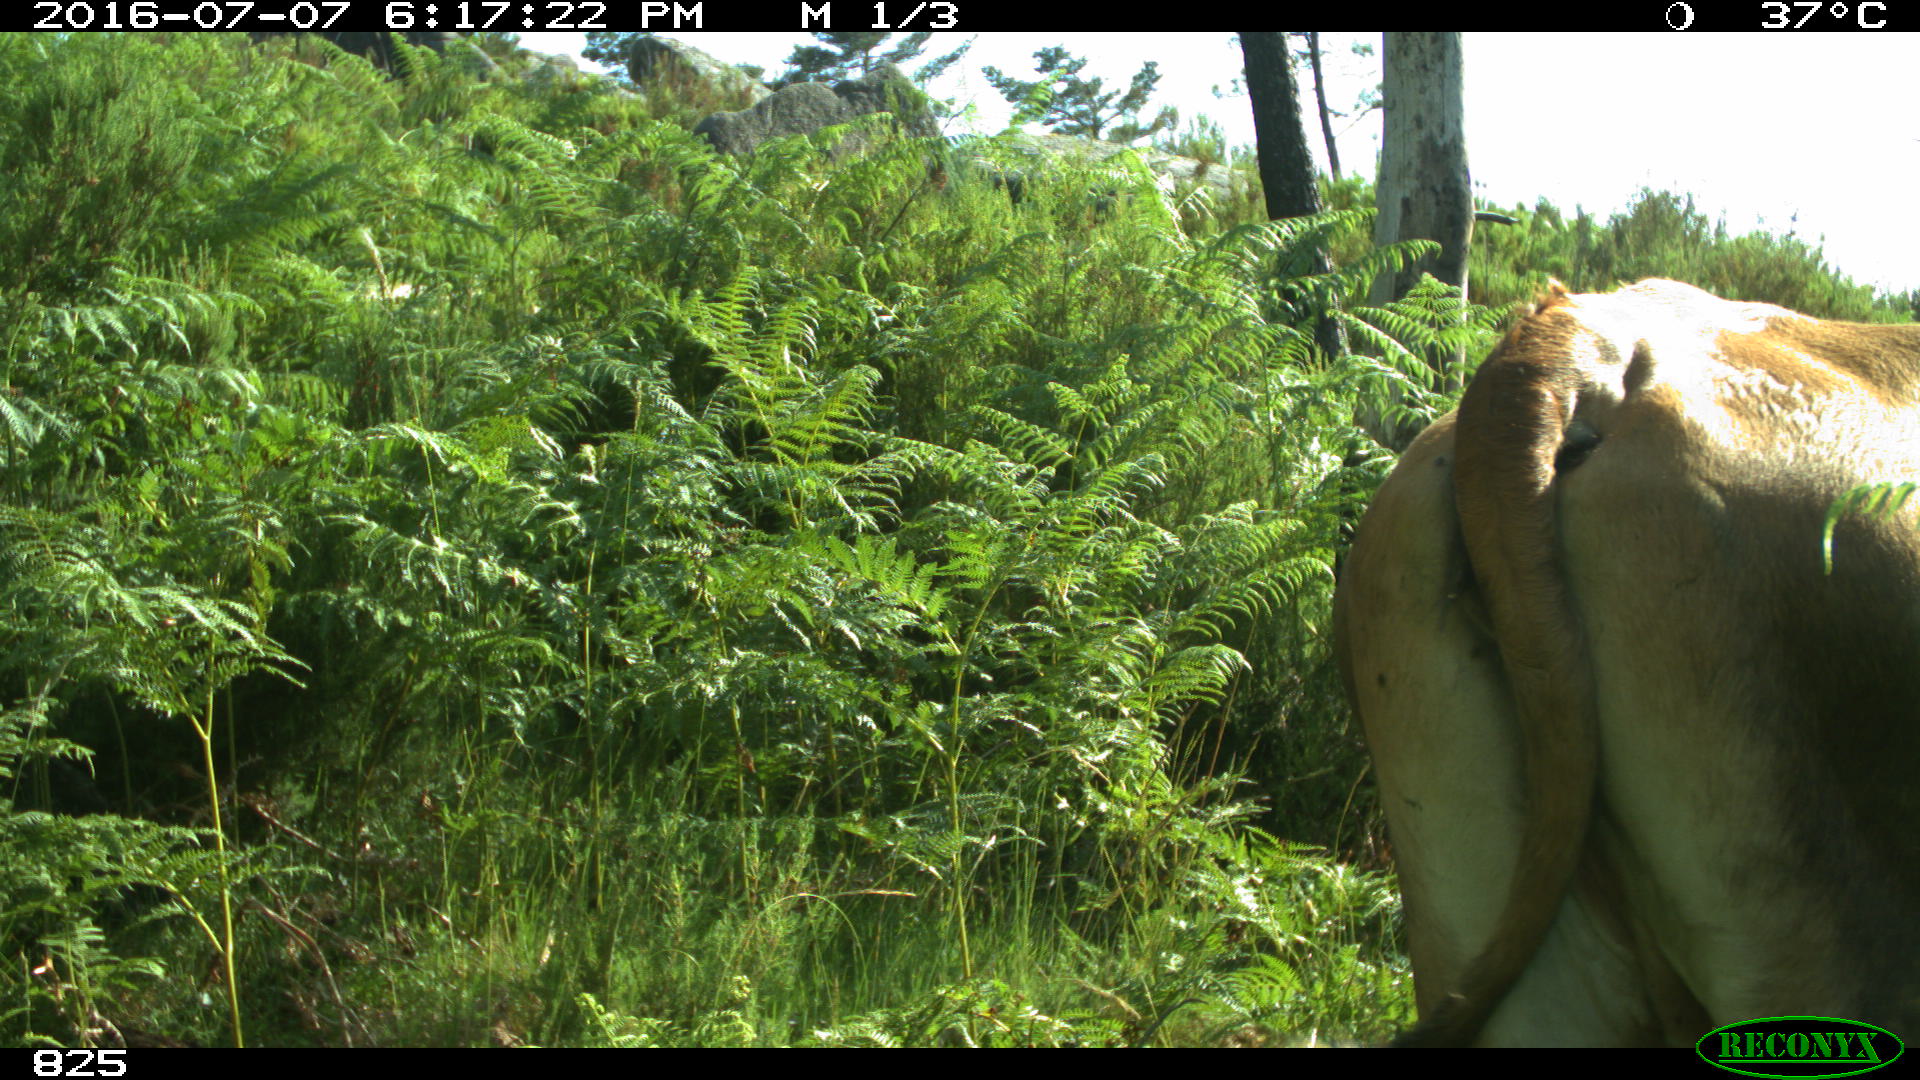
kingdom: Animalia
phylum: Chordata
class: Mammalia
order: Artiodactyla
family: Bovidae
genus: Bos
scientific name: Bos taurus
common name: Domesticated cattle
